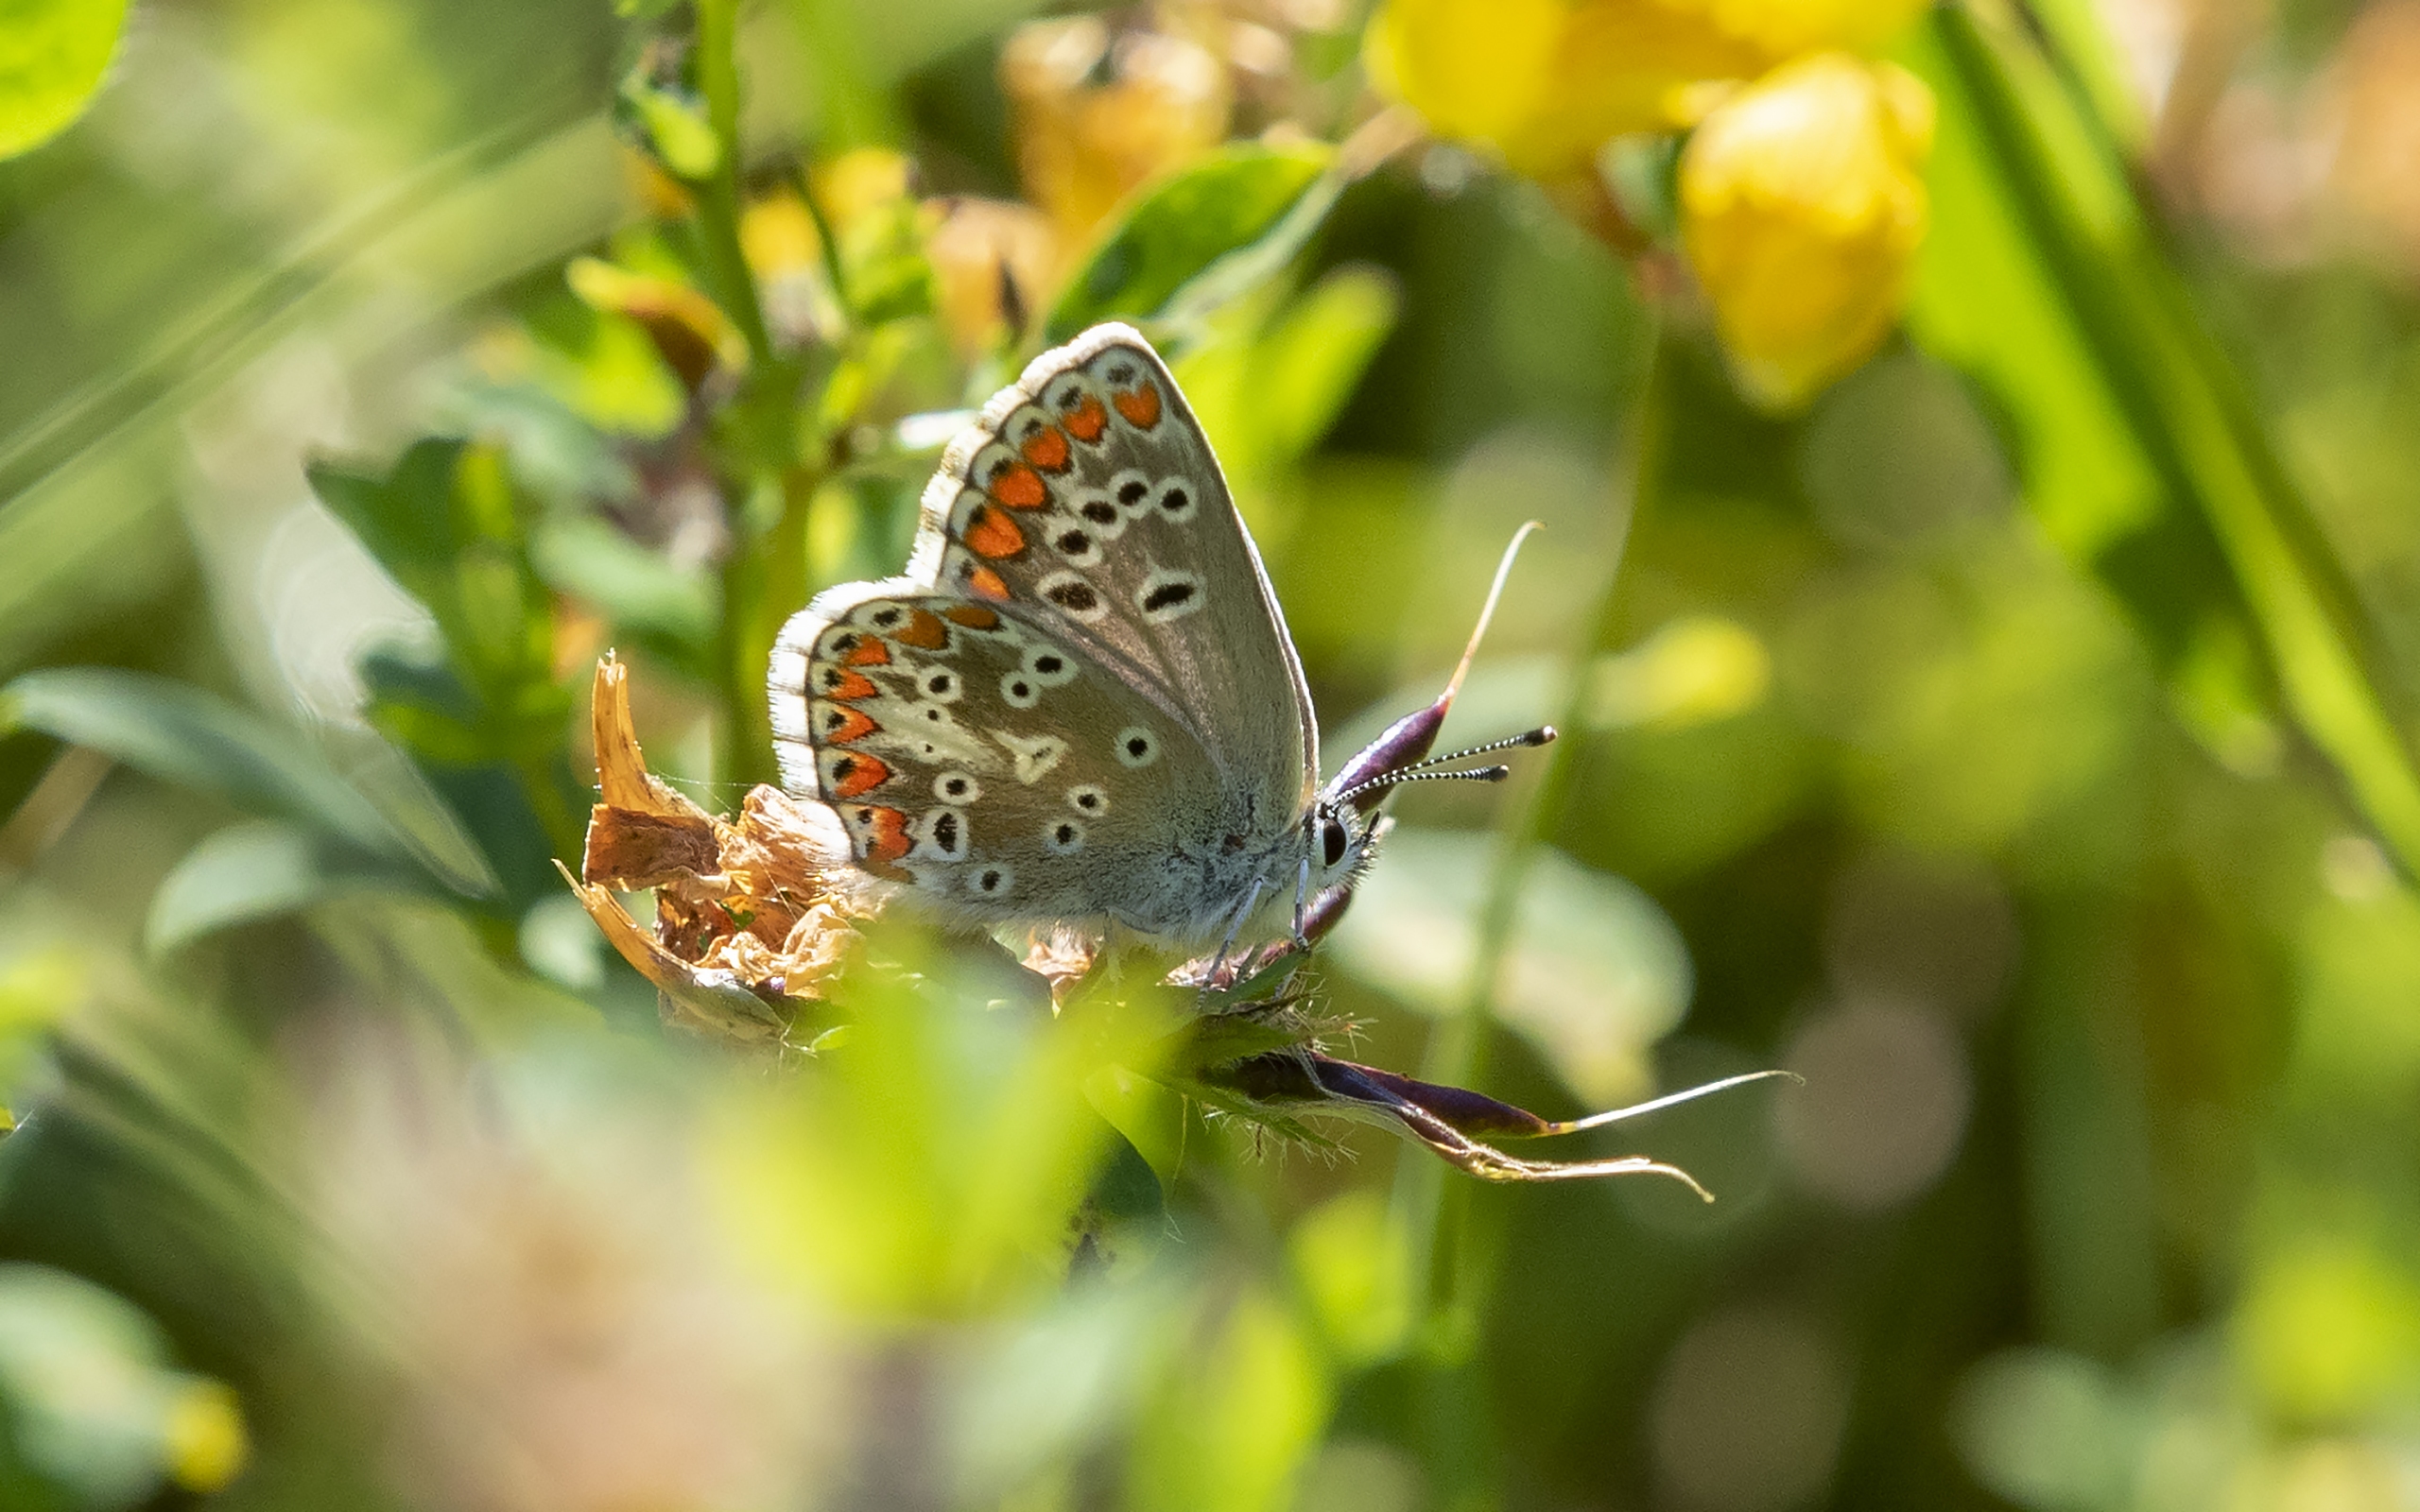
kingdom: Animalia
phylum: Arthropoda
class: Insecta
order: Lepidoptera
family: Lycaenidae
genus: Aricia
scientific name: Aricia agestis
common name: Rødplettet blåfugl
